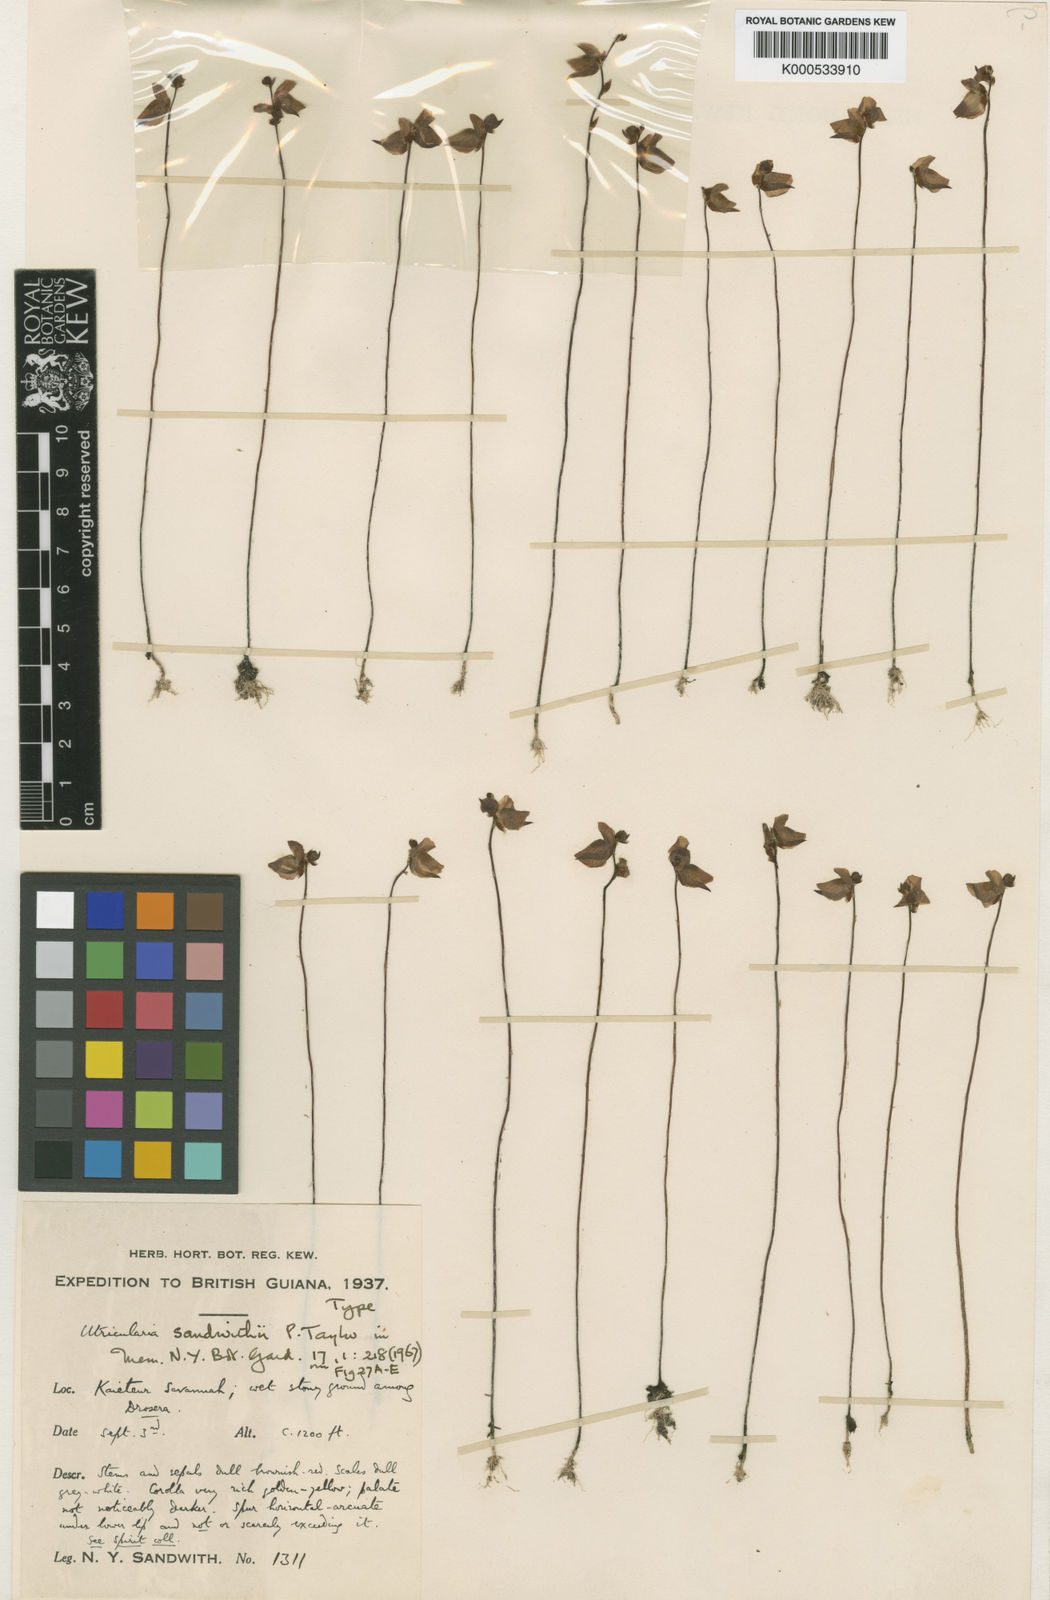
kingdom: Plantae
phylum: Tracheophyta
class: Magnoliopsida
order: Lamiales
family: Lentibulariaceae
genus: Utricularia
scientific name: Utricularia sandwithii
